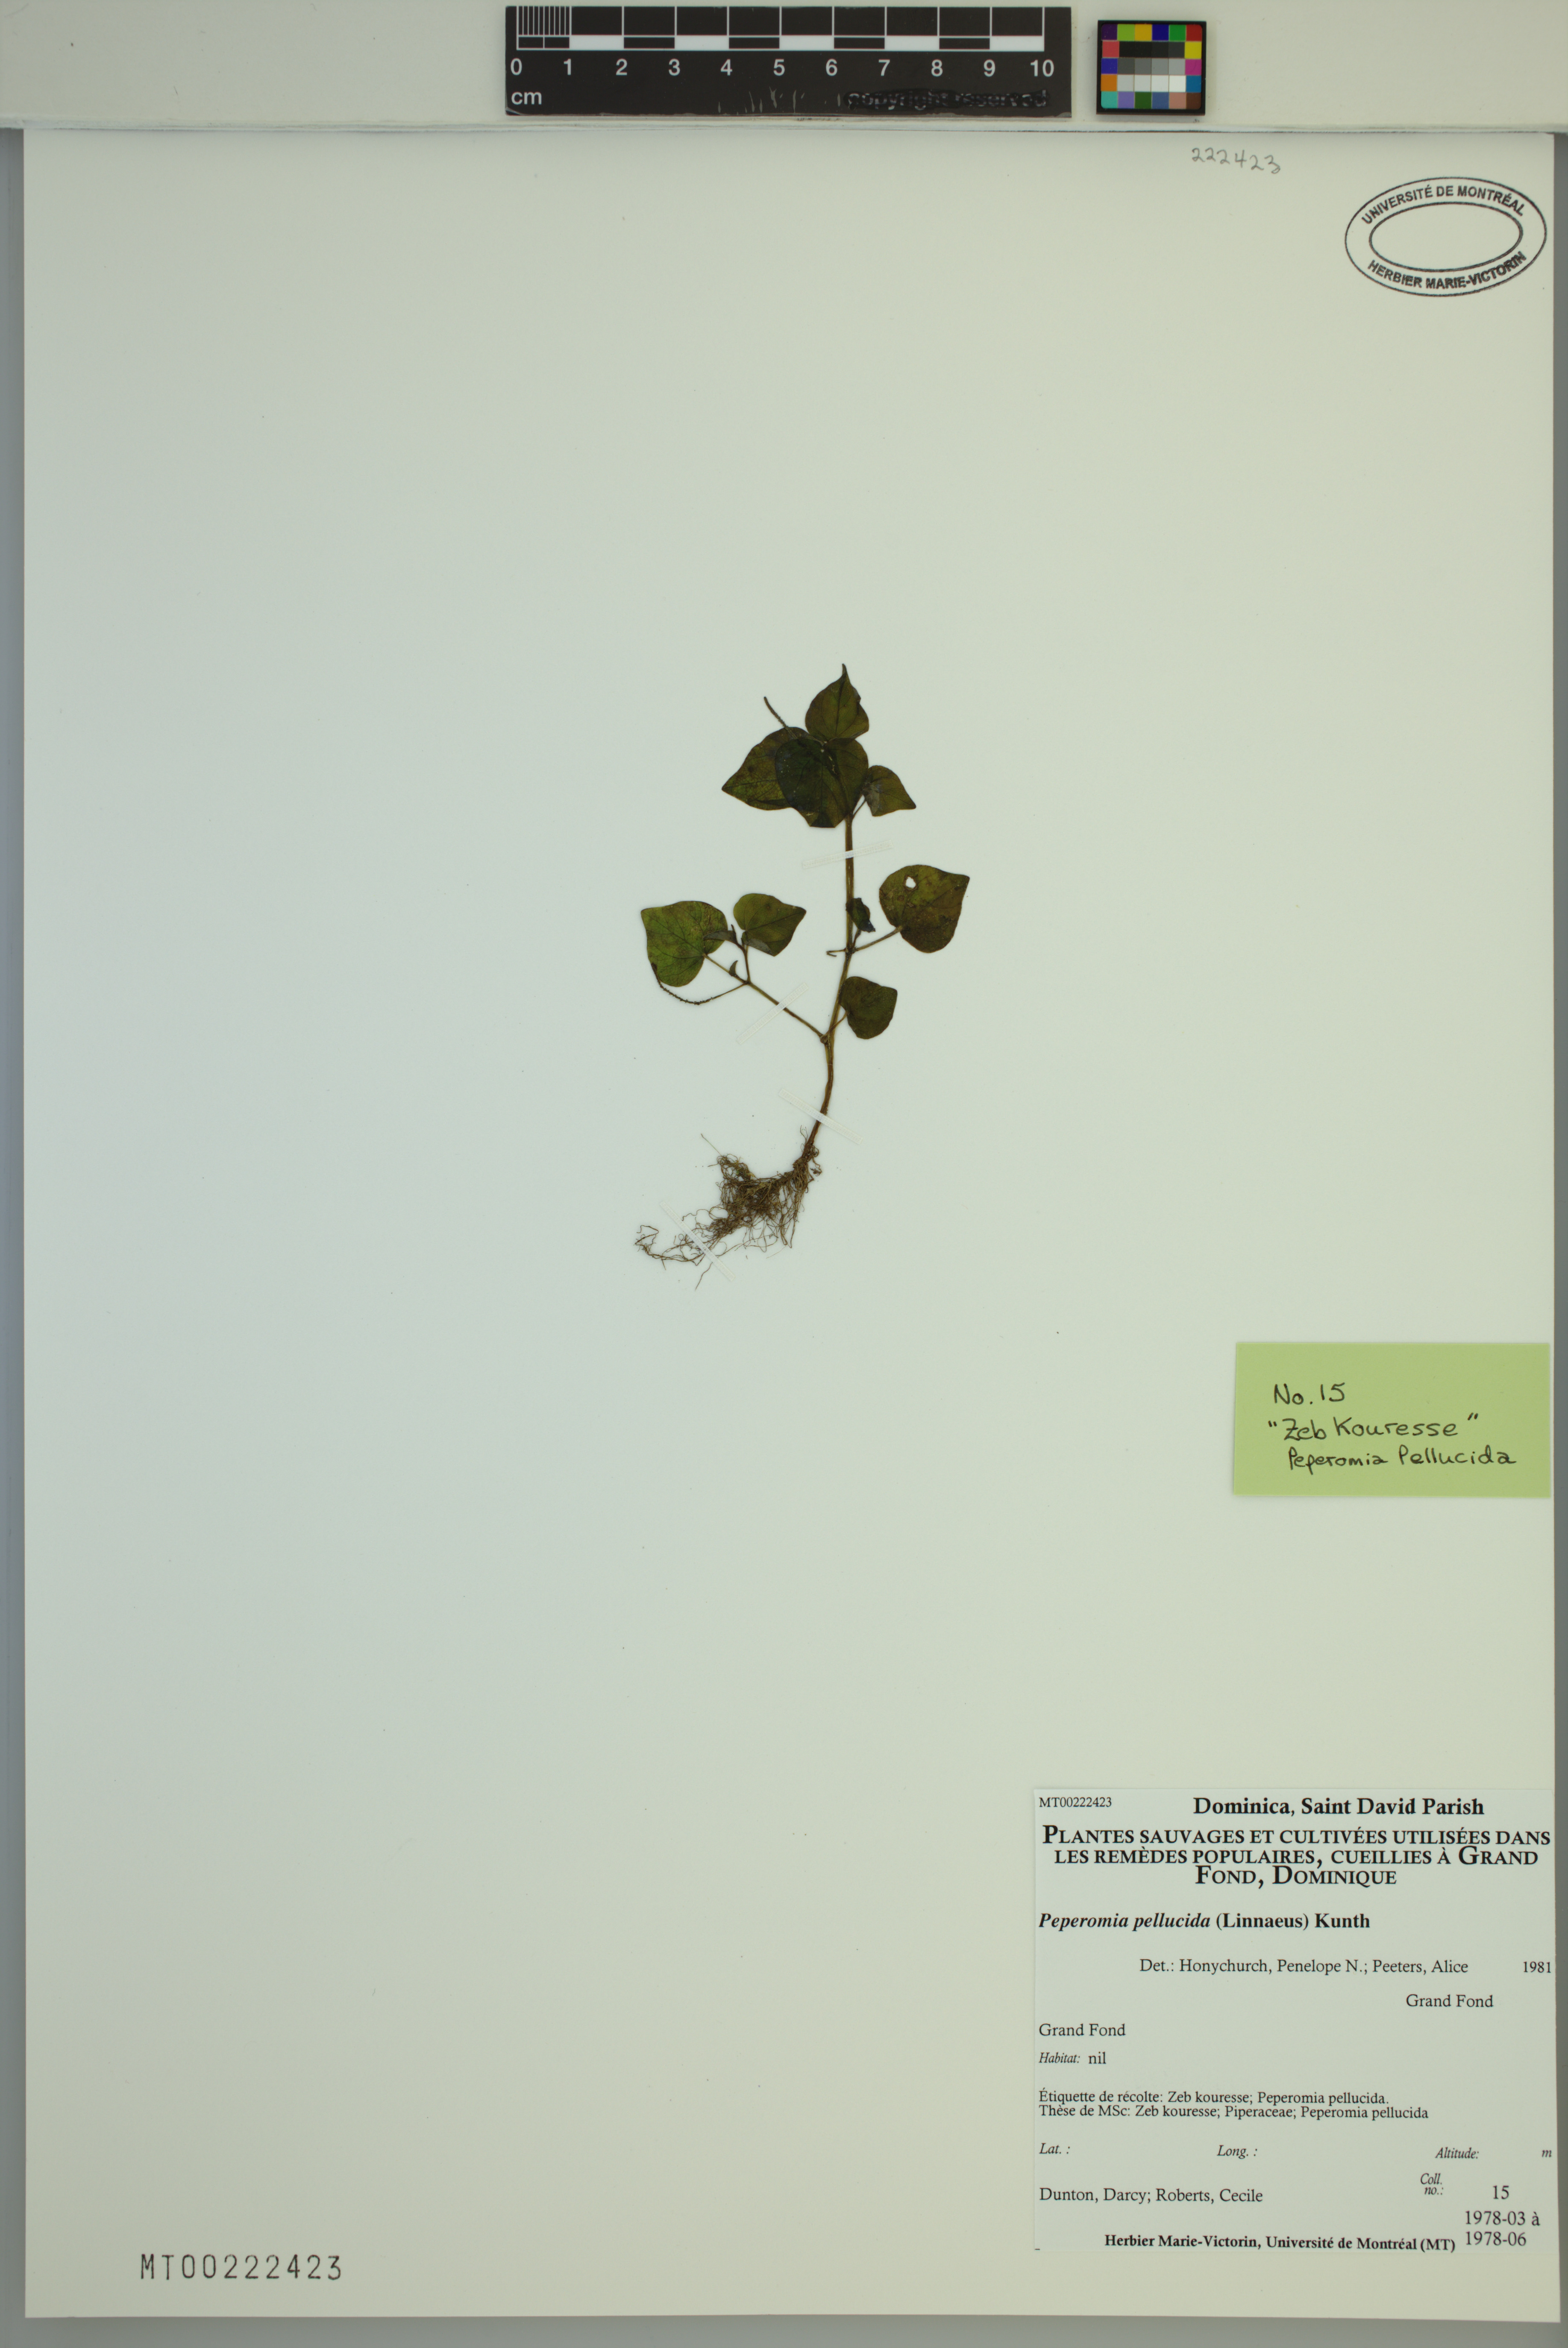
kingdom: Plantae
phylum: Tracheophyta
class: Magnoliopsida
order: Piperales
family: Piperaceae
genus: Peperomia
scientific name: Peperomia pellucida
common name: Man to man
